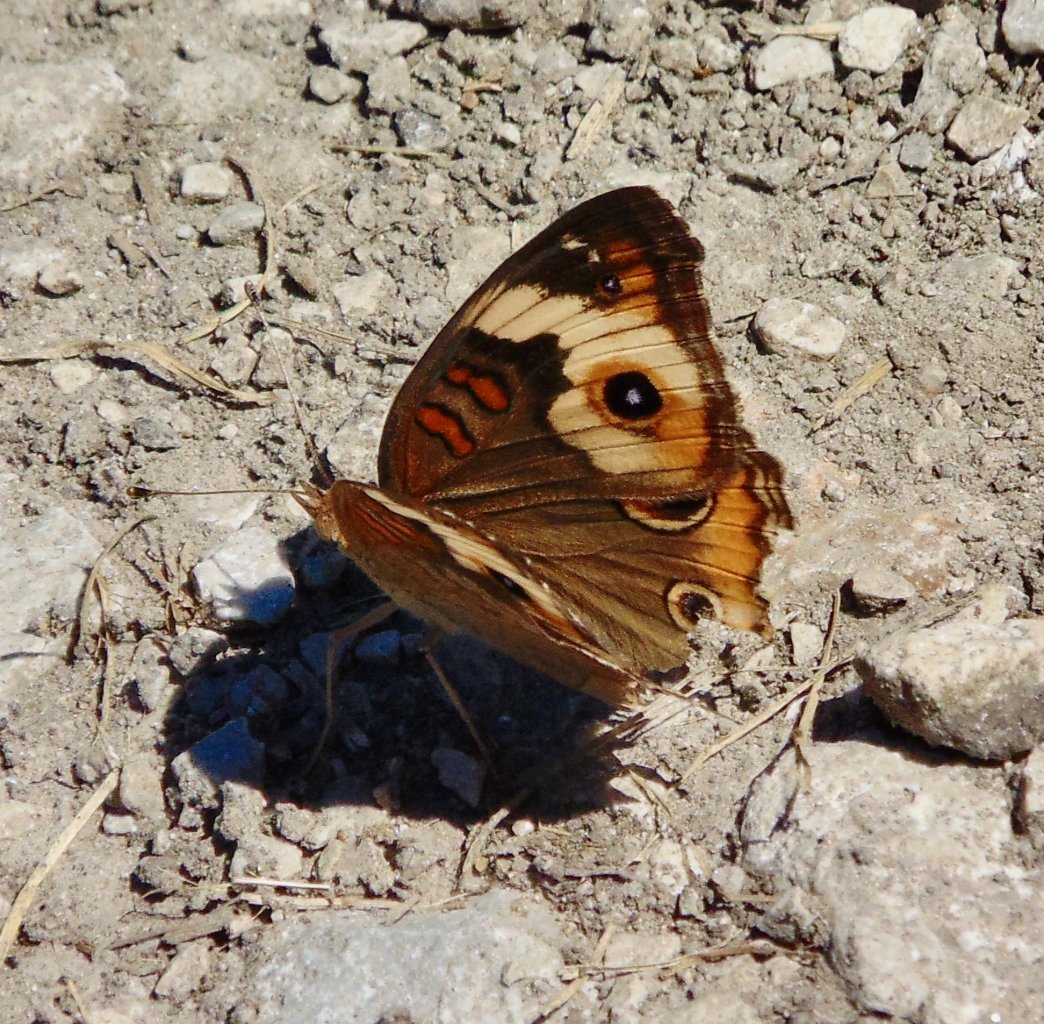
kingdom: Animalia
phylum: Arthropoda
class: Insecta
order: Lepidoptera
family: Nymphalidae
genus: Junonia
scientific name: Junonia coenia
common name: Common Buckeye
